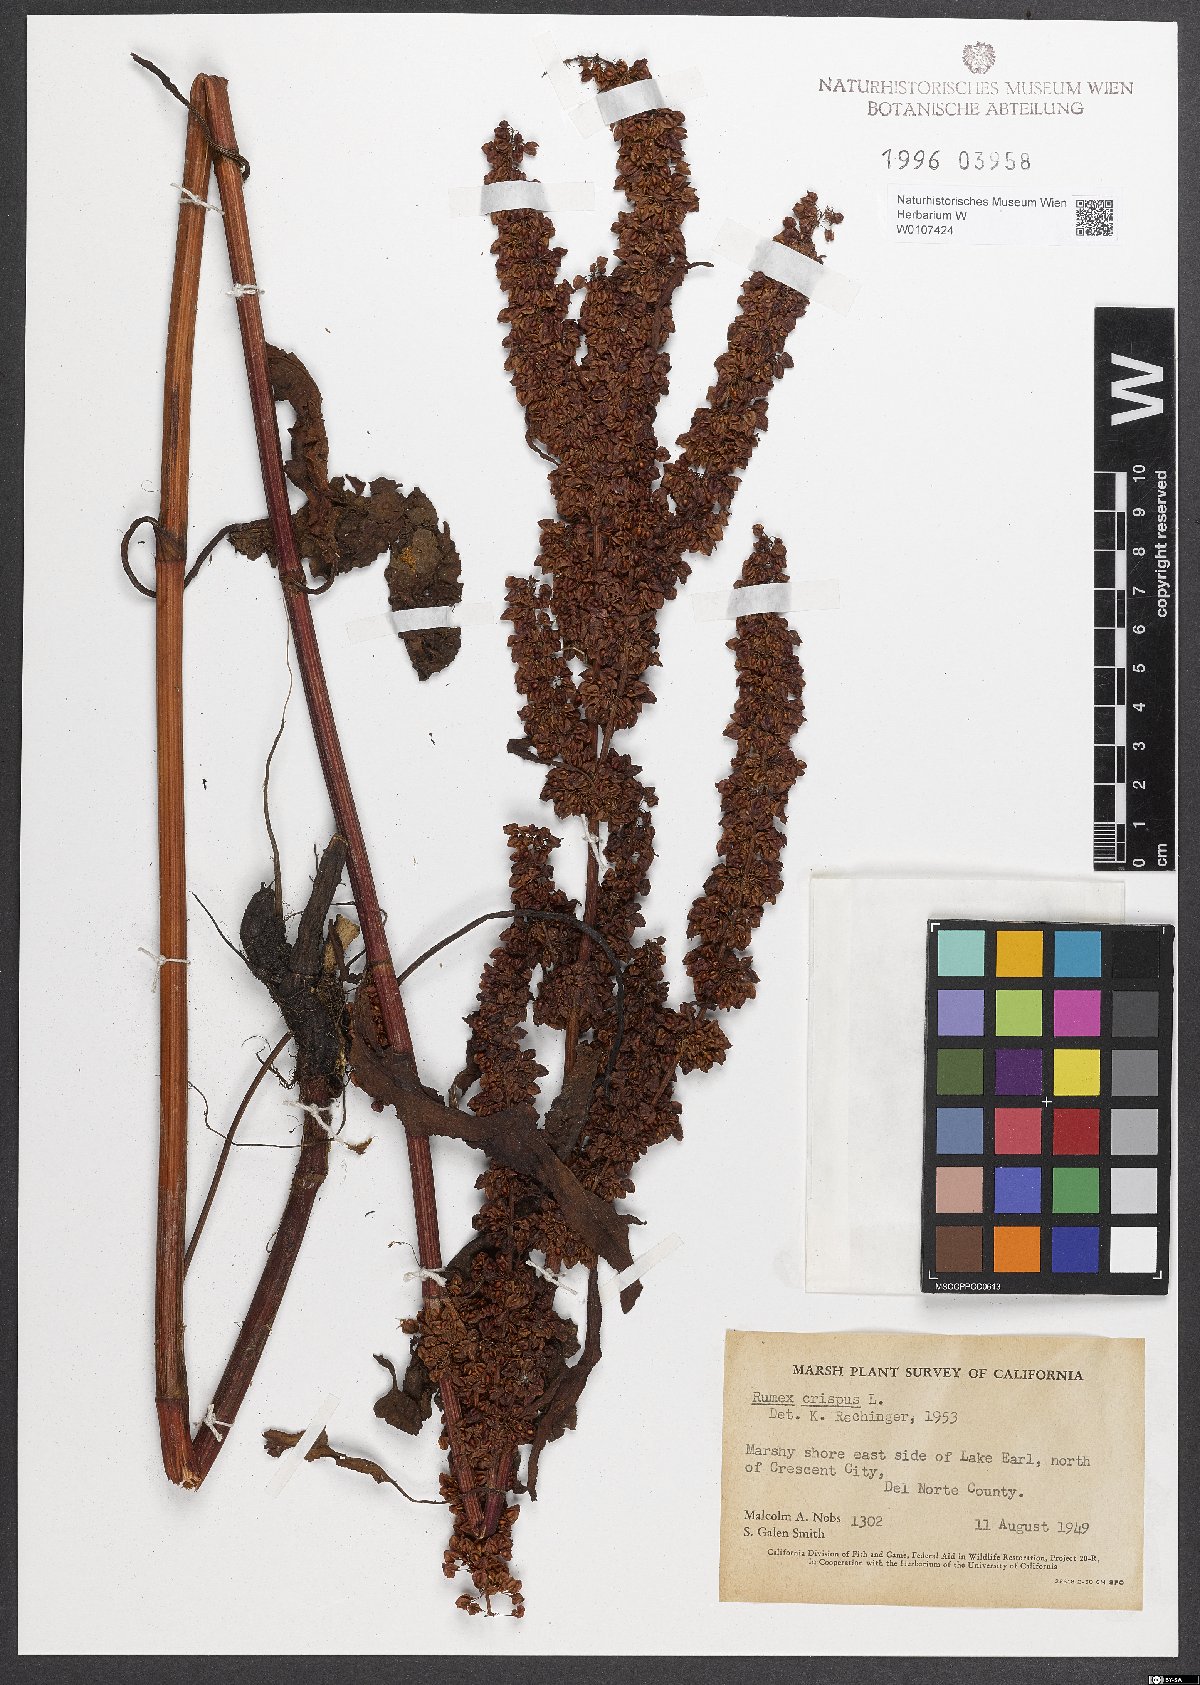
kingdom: Plantae
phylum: Tracheophyta
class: Magnoliopsida
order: Caryophyllales
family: Polygonaceae
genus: Rumex
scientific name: Rumex crispus
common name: Curled dock
